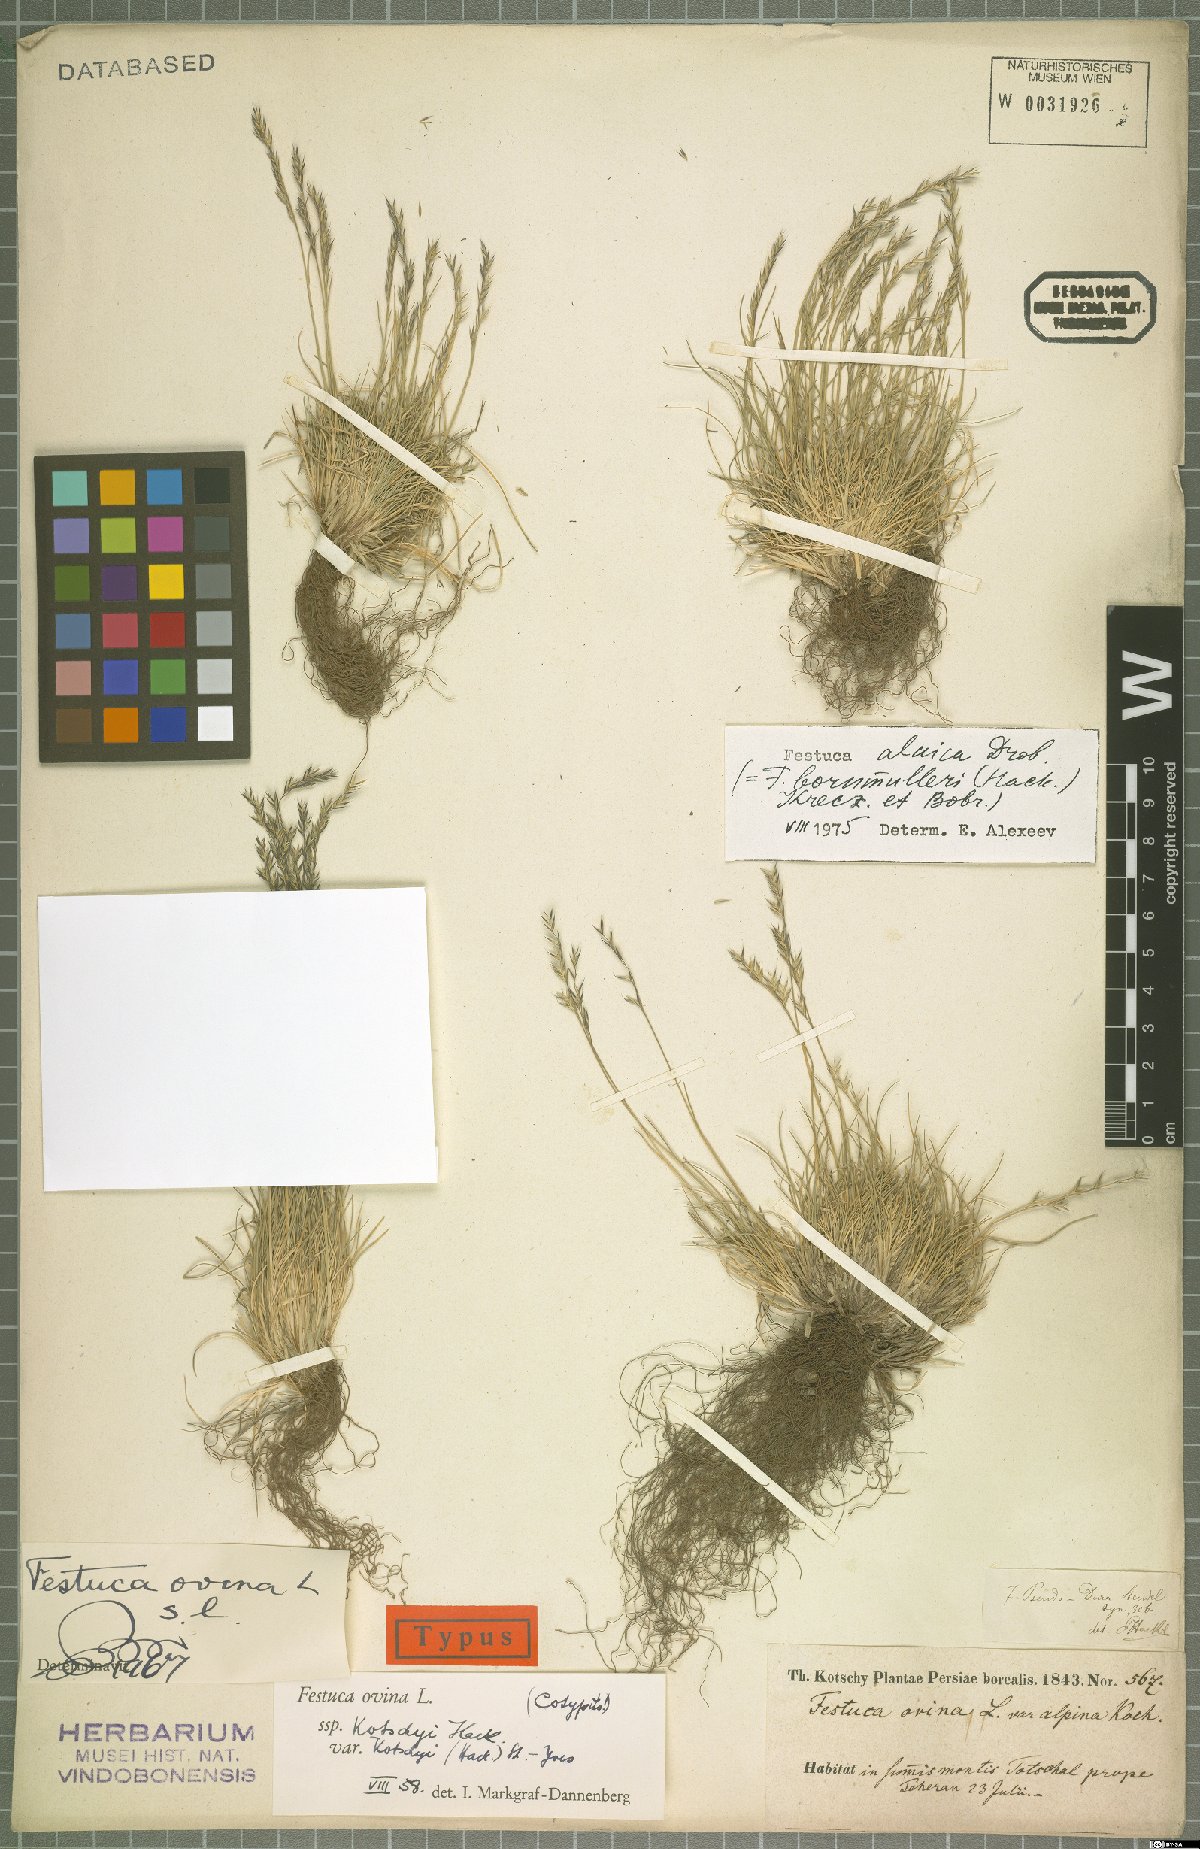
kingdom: Plantae
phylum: Tracheophyta
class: Liliopsida
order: Poales
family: Poaceae
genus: Festuca
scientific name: Festuca alaica
